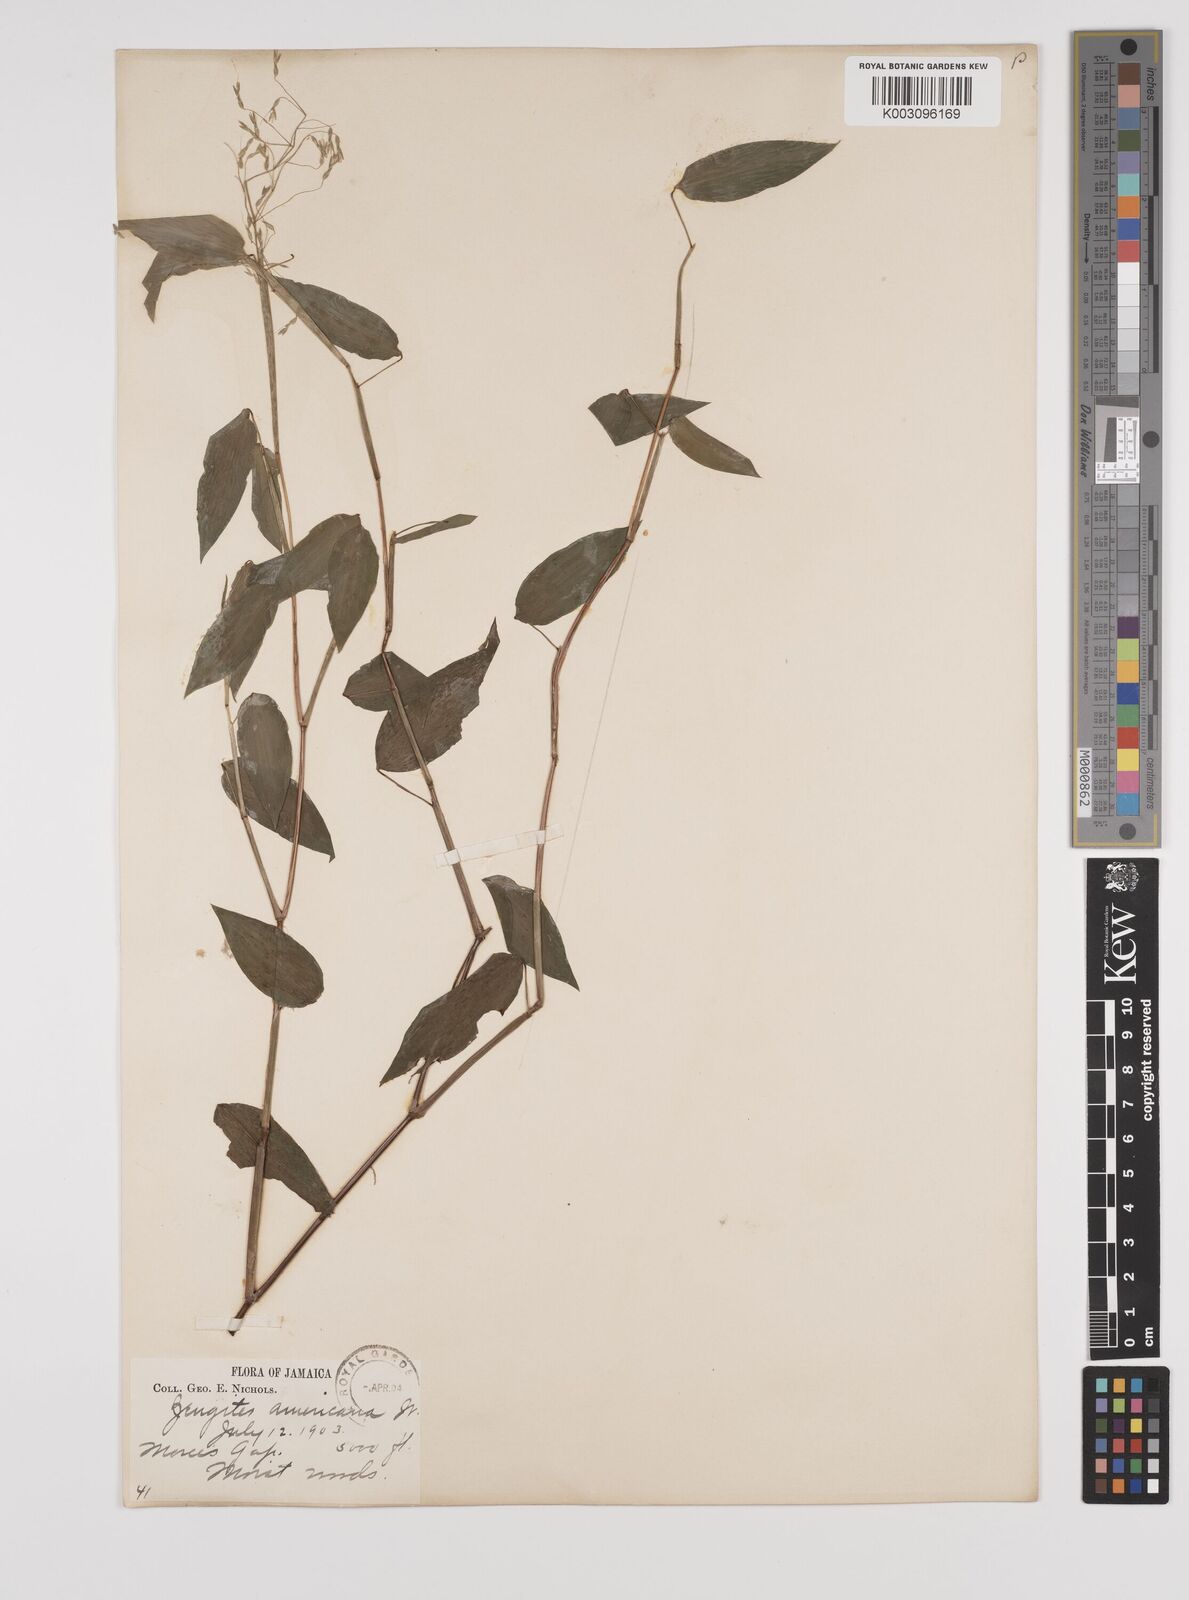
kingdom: Plantae
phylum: Tracheophyta
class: Liliopsida
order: Poales
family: Poaceae
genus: Zeugites
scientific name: Zeugites americanus
